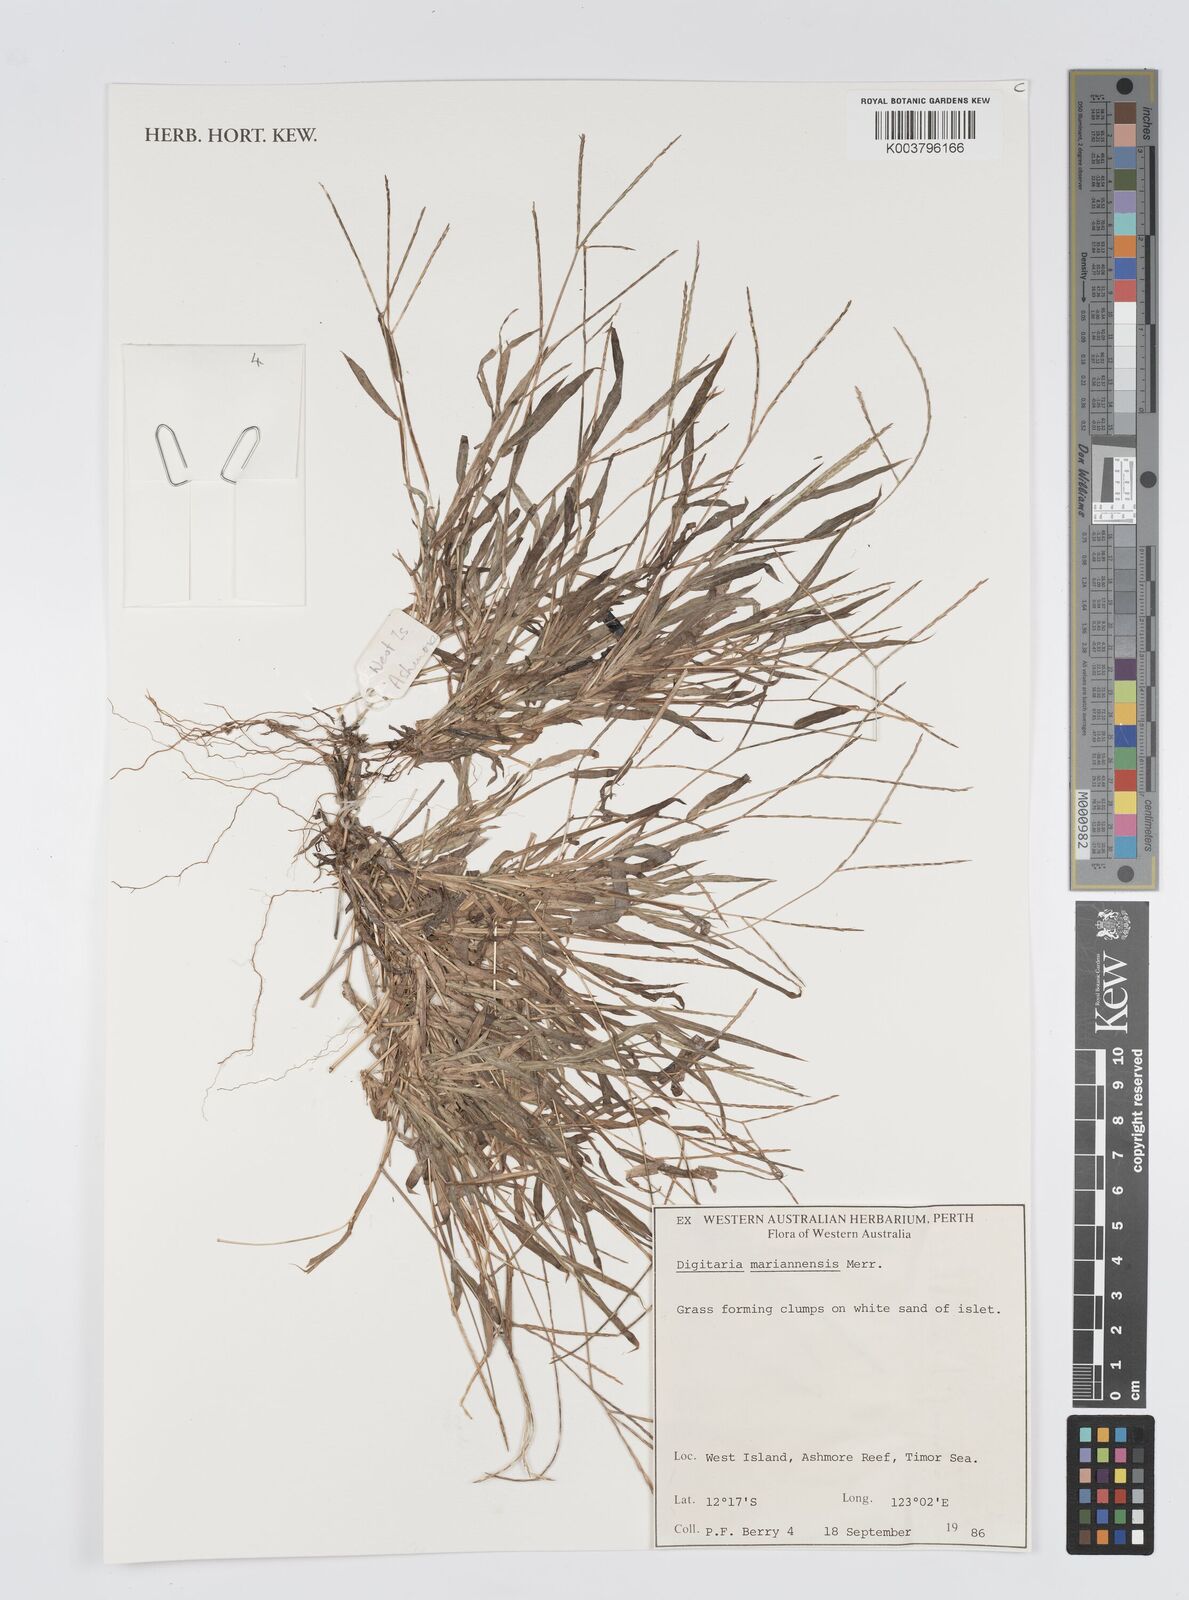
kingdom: Plantae
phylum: Tracheophyta
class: Liliopsida
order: Poales
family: Poaceae
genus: Digitaria
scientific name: Digitaria mariannensis
